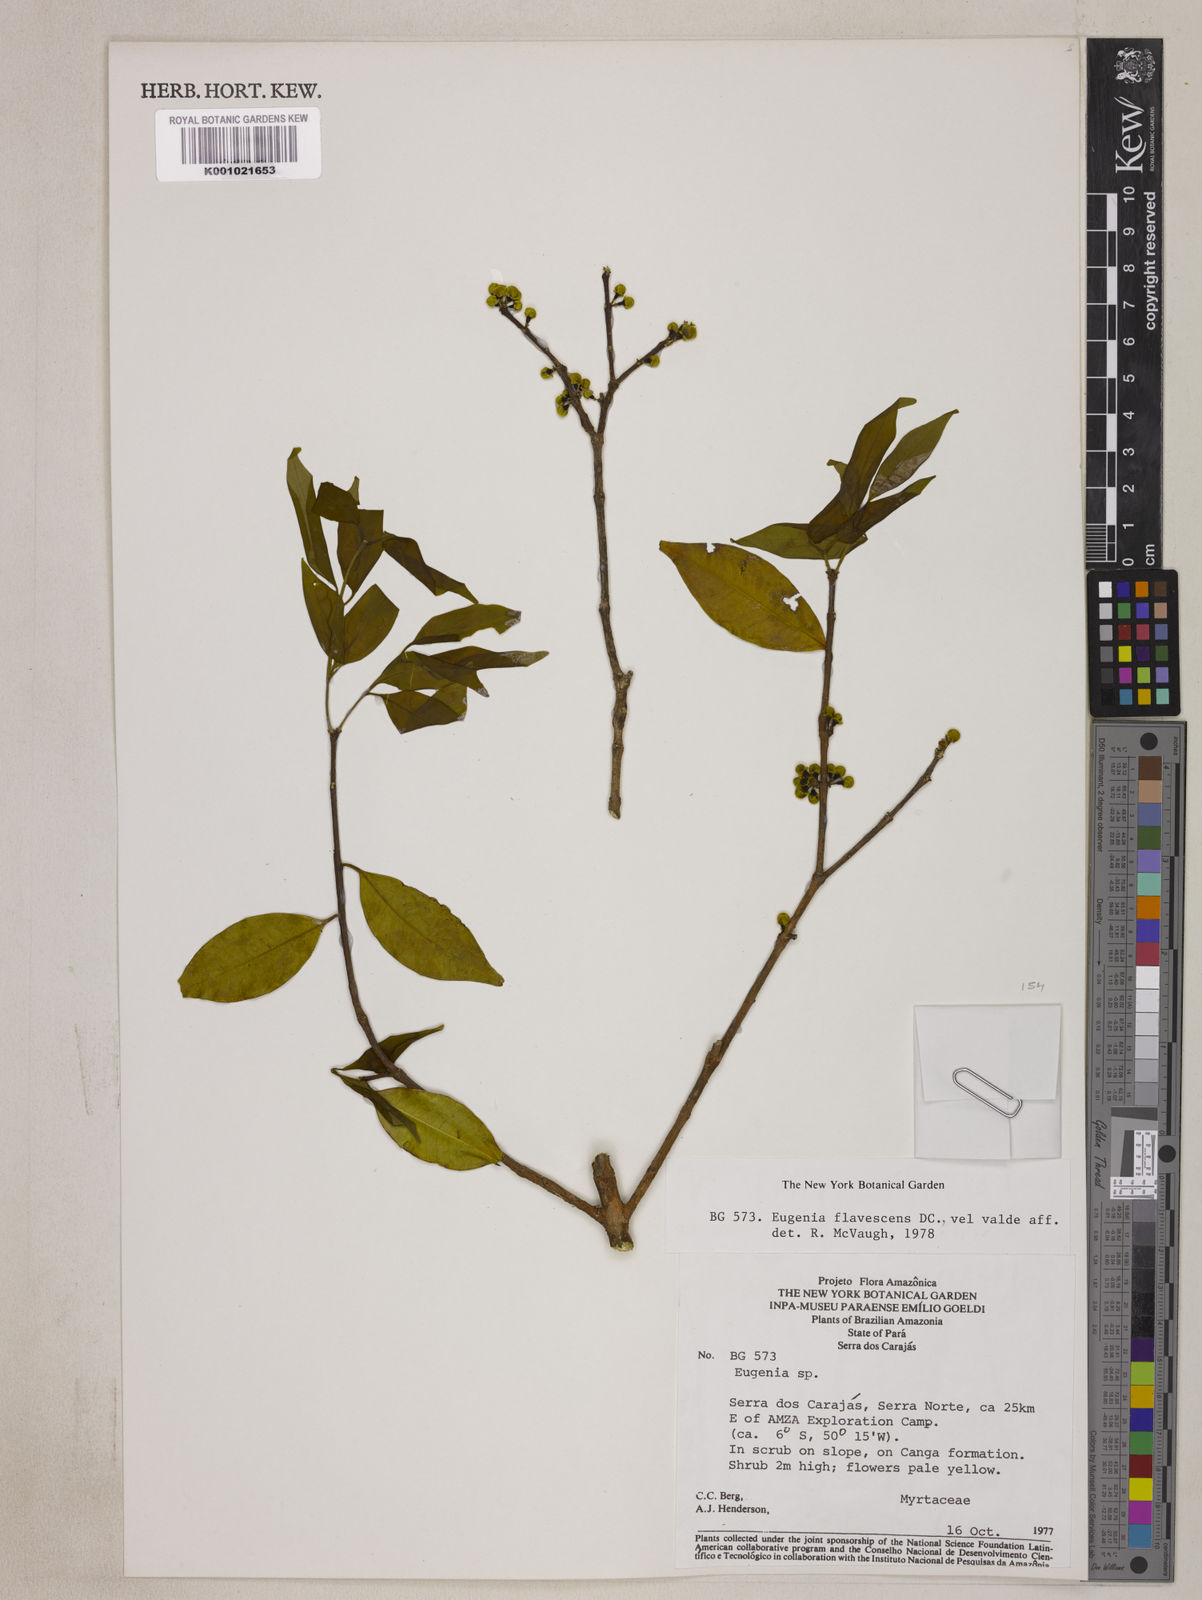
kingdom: Plantae
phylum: Tracheophyta
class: Magnoliopsida
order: Myrtales
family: Myrtaceae
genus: Eugenia
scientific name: Eugenia flavescens
